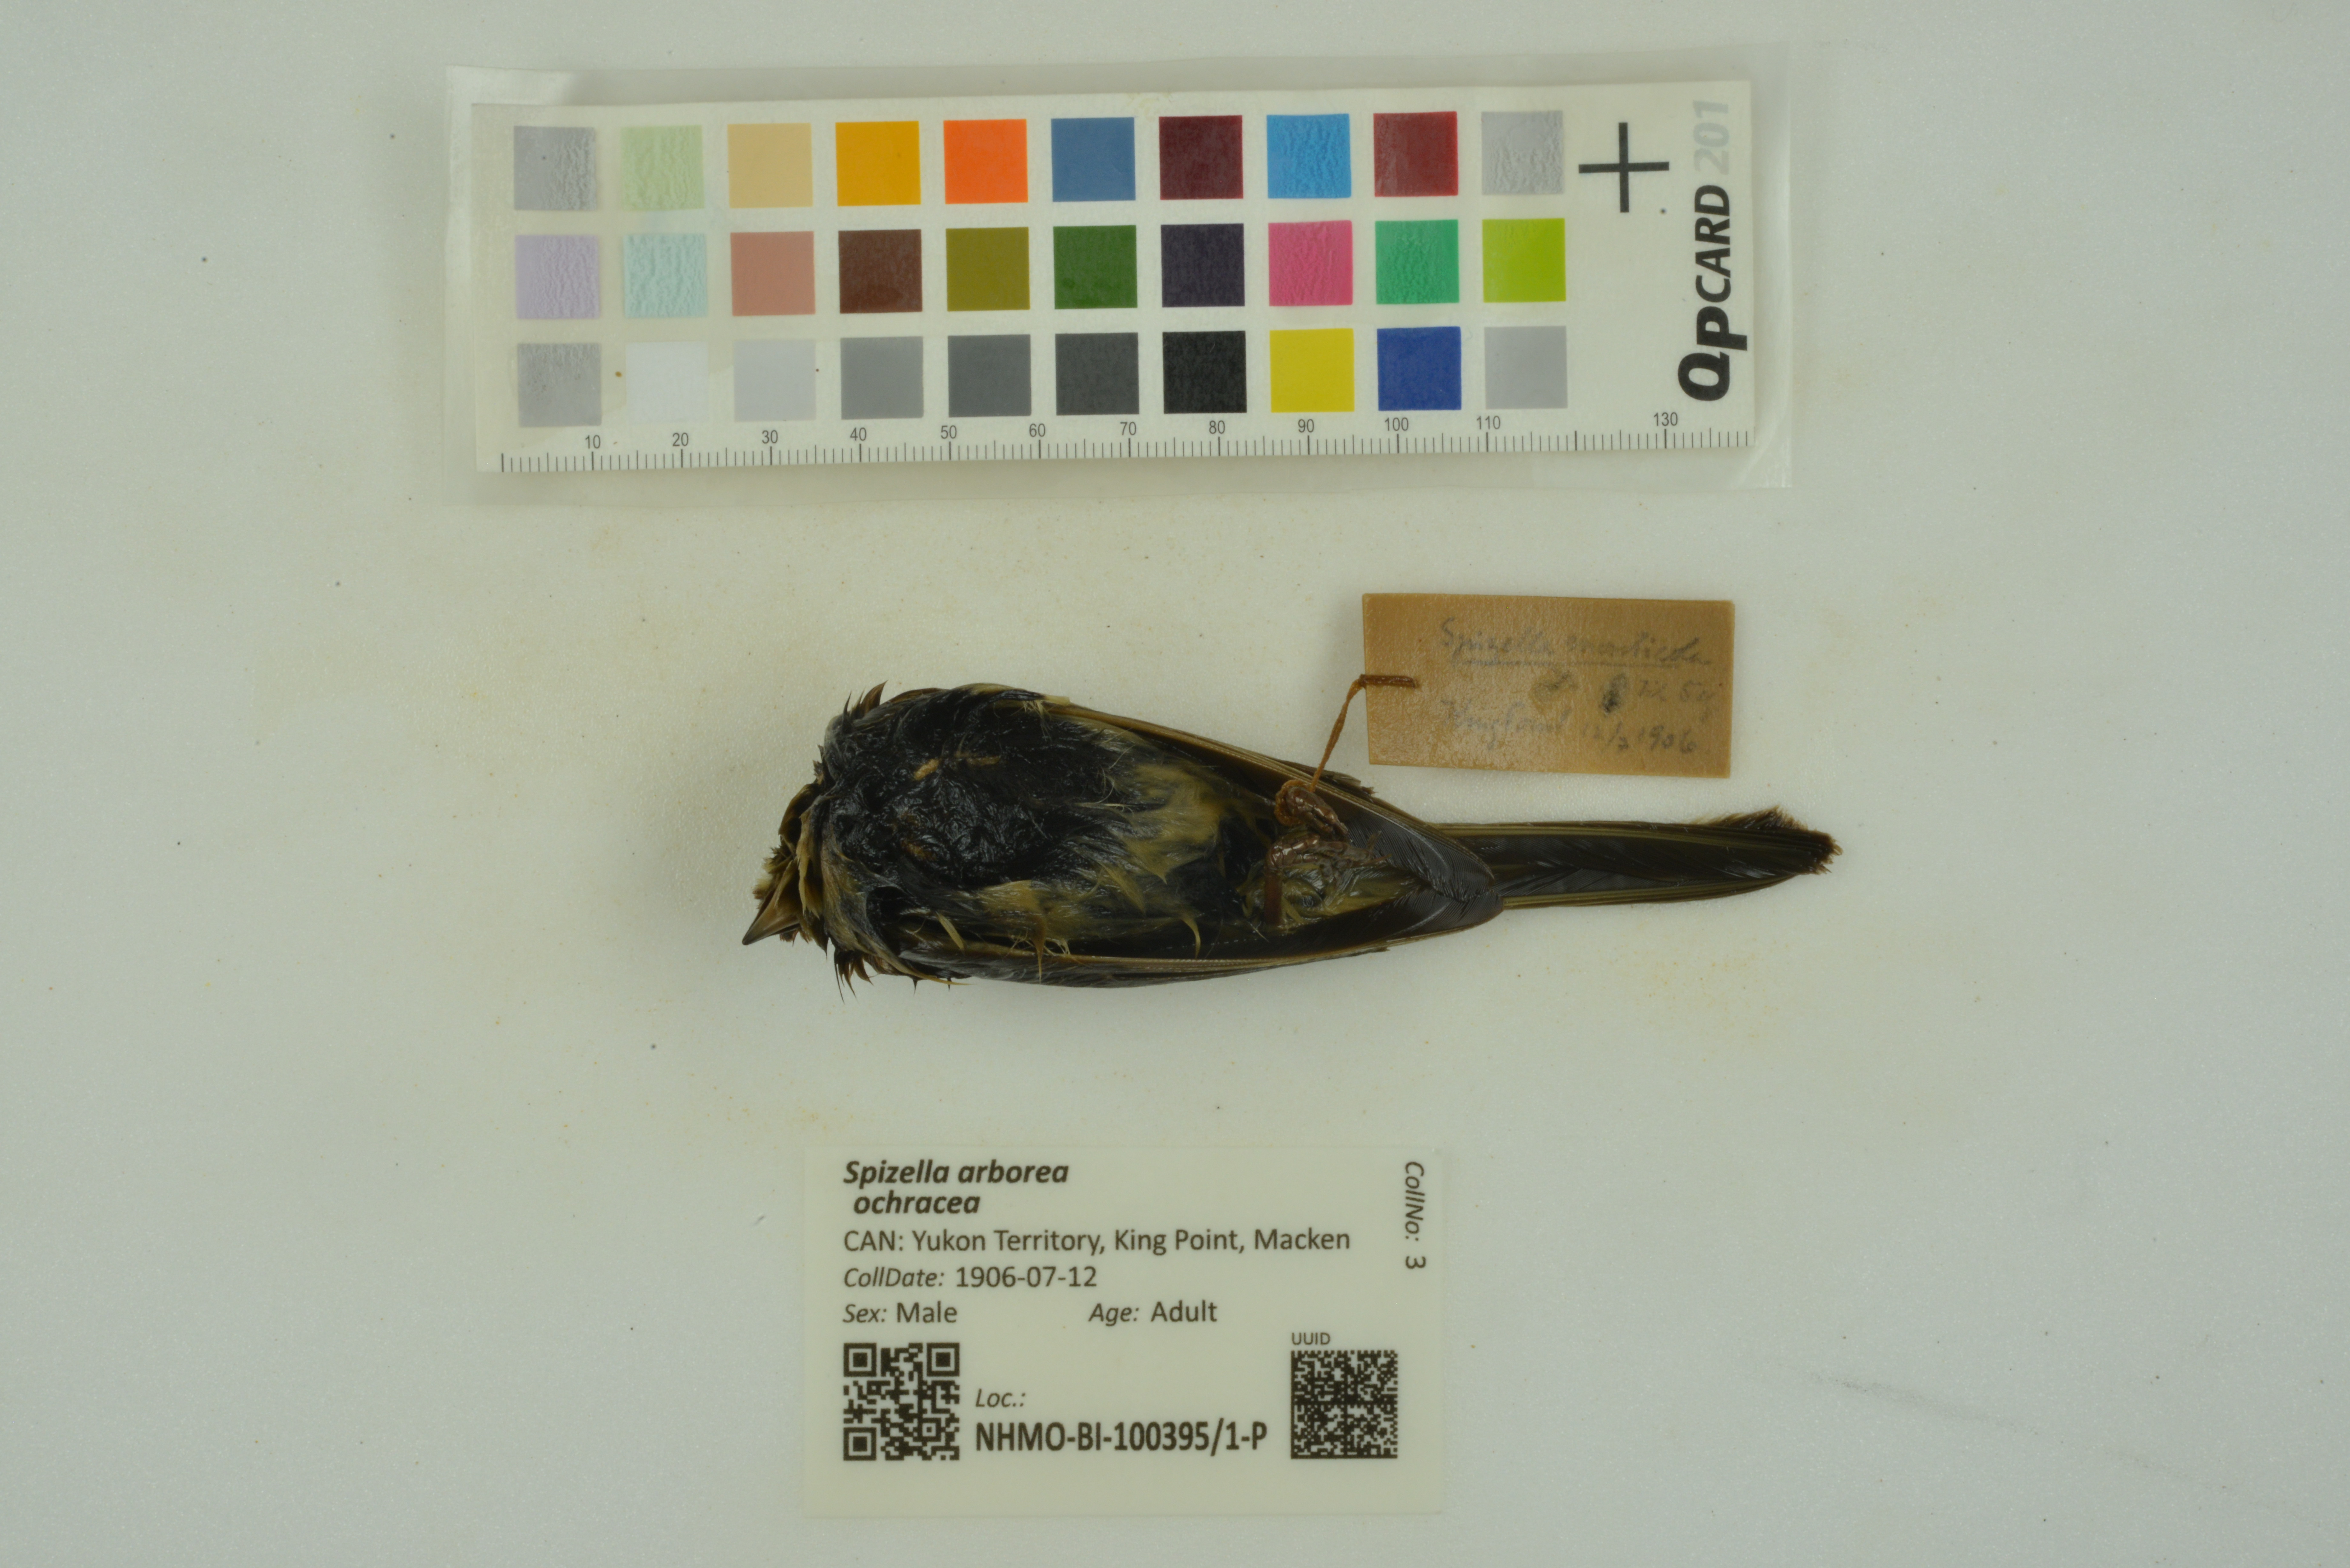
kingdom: Animalia
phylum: Chordata
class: Aves
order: Passeriformes
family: Passerellidae
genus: Spizelloides
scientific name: Spizelloides arborea
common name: American tree sparrow
